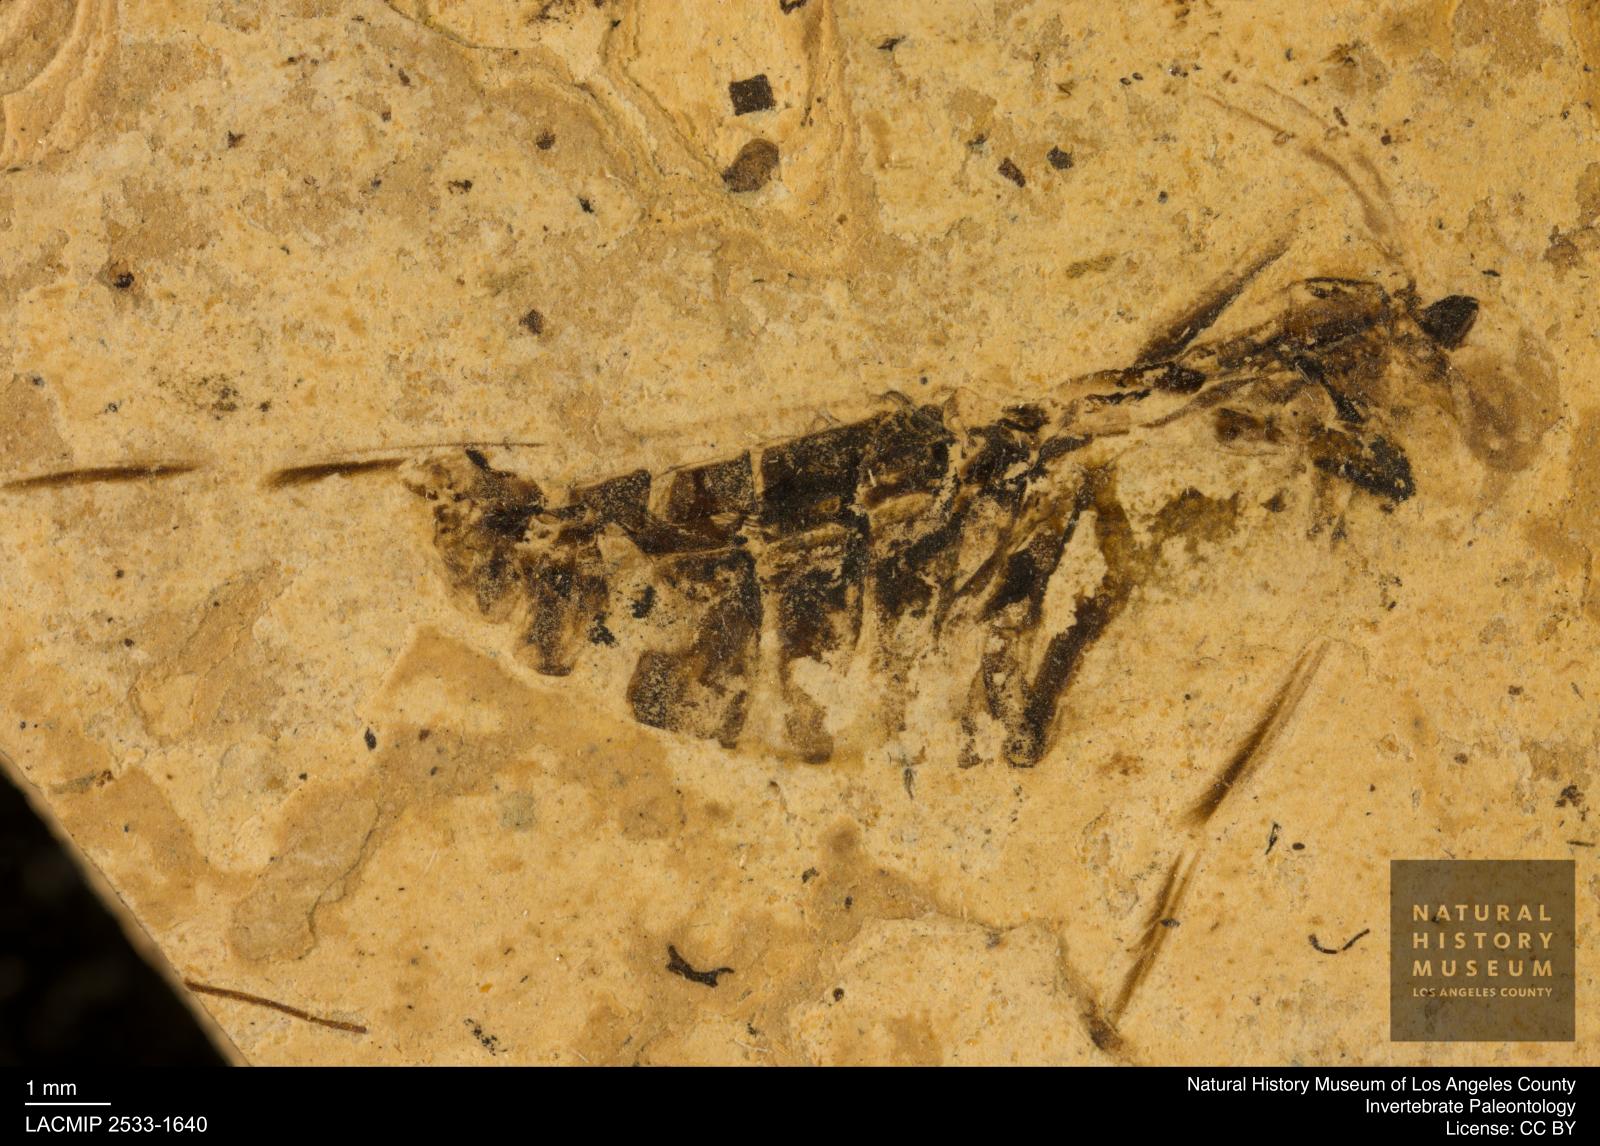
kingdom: Animalia
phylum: Arthropoda
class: Insecta
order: Hemiptera
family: Notonectidae
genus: Notonecta
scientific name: Notonecta
